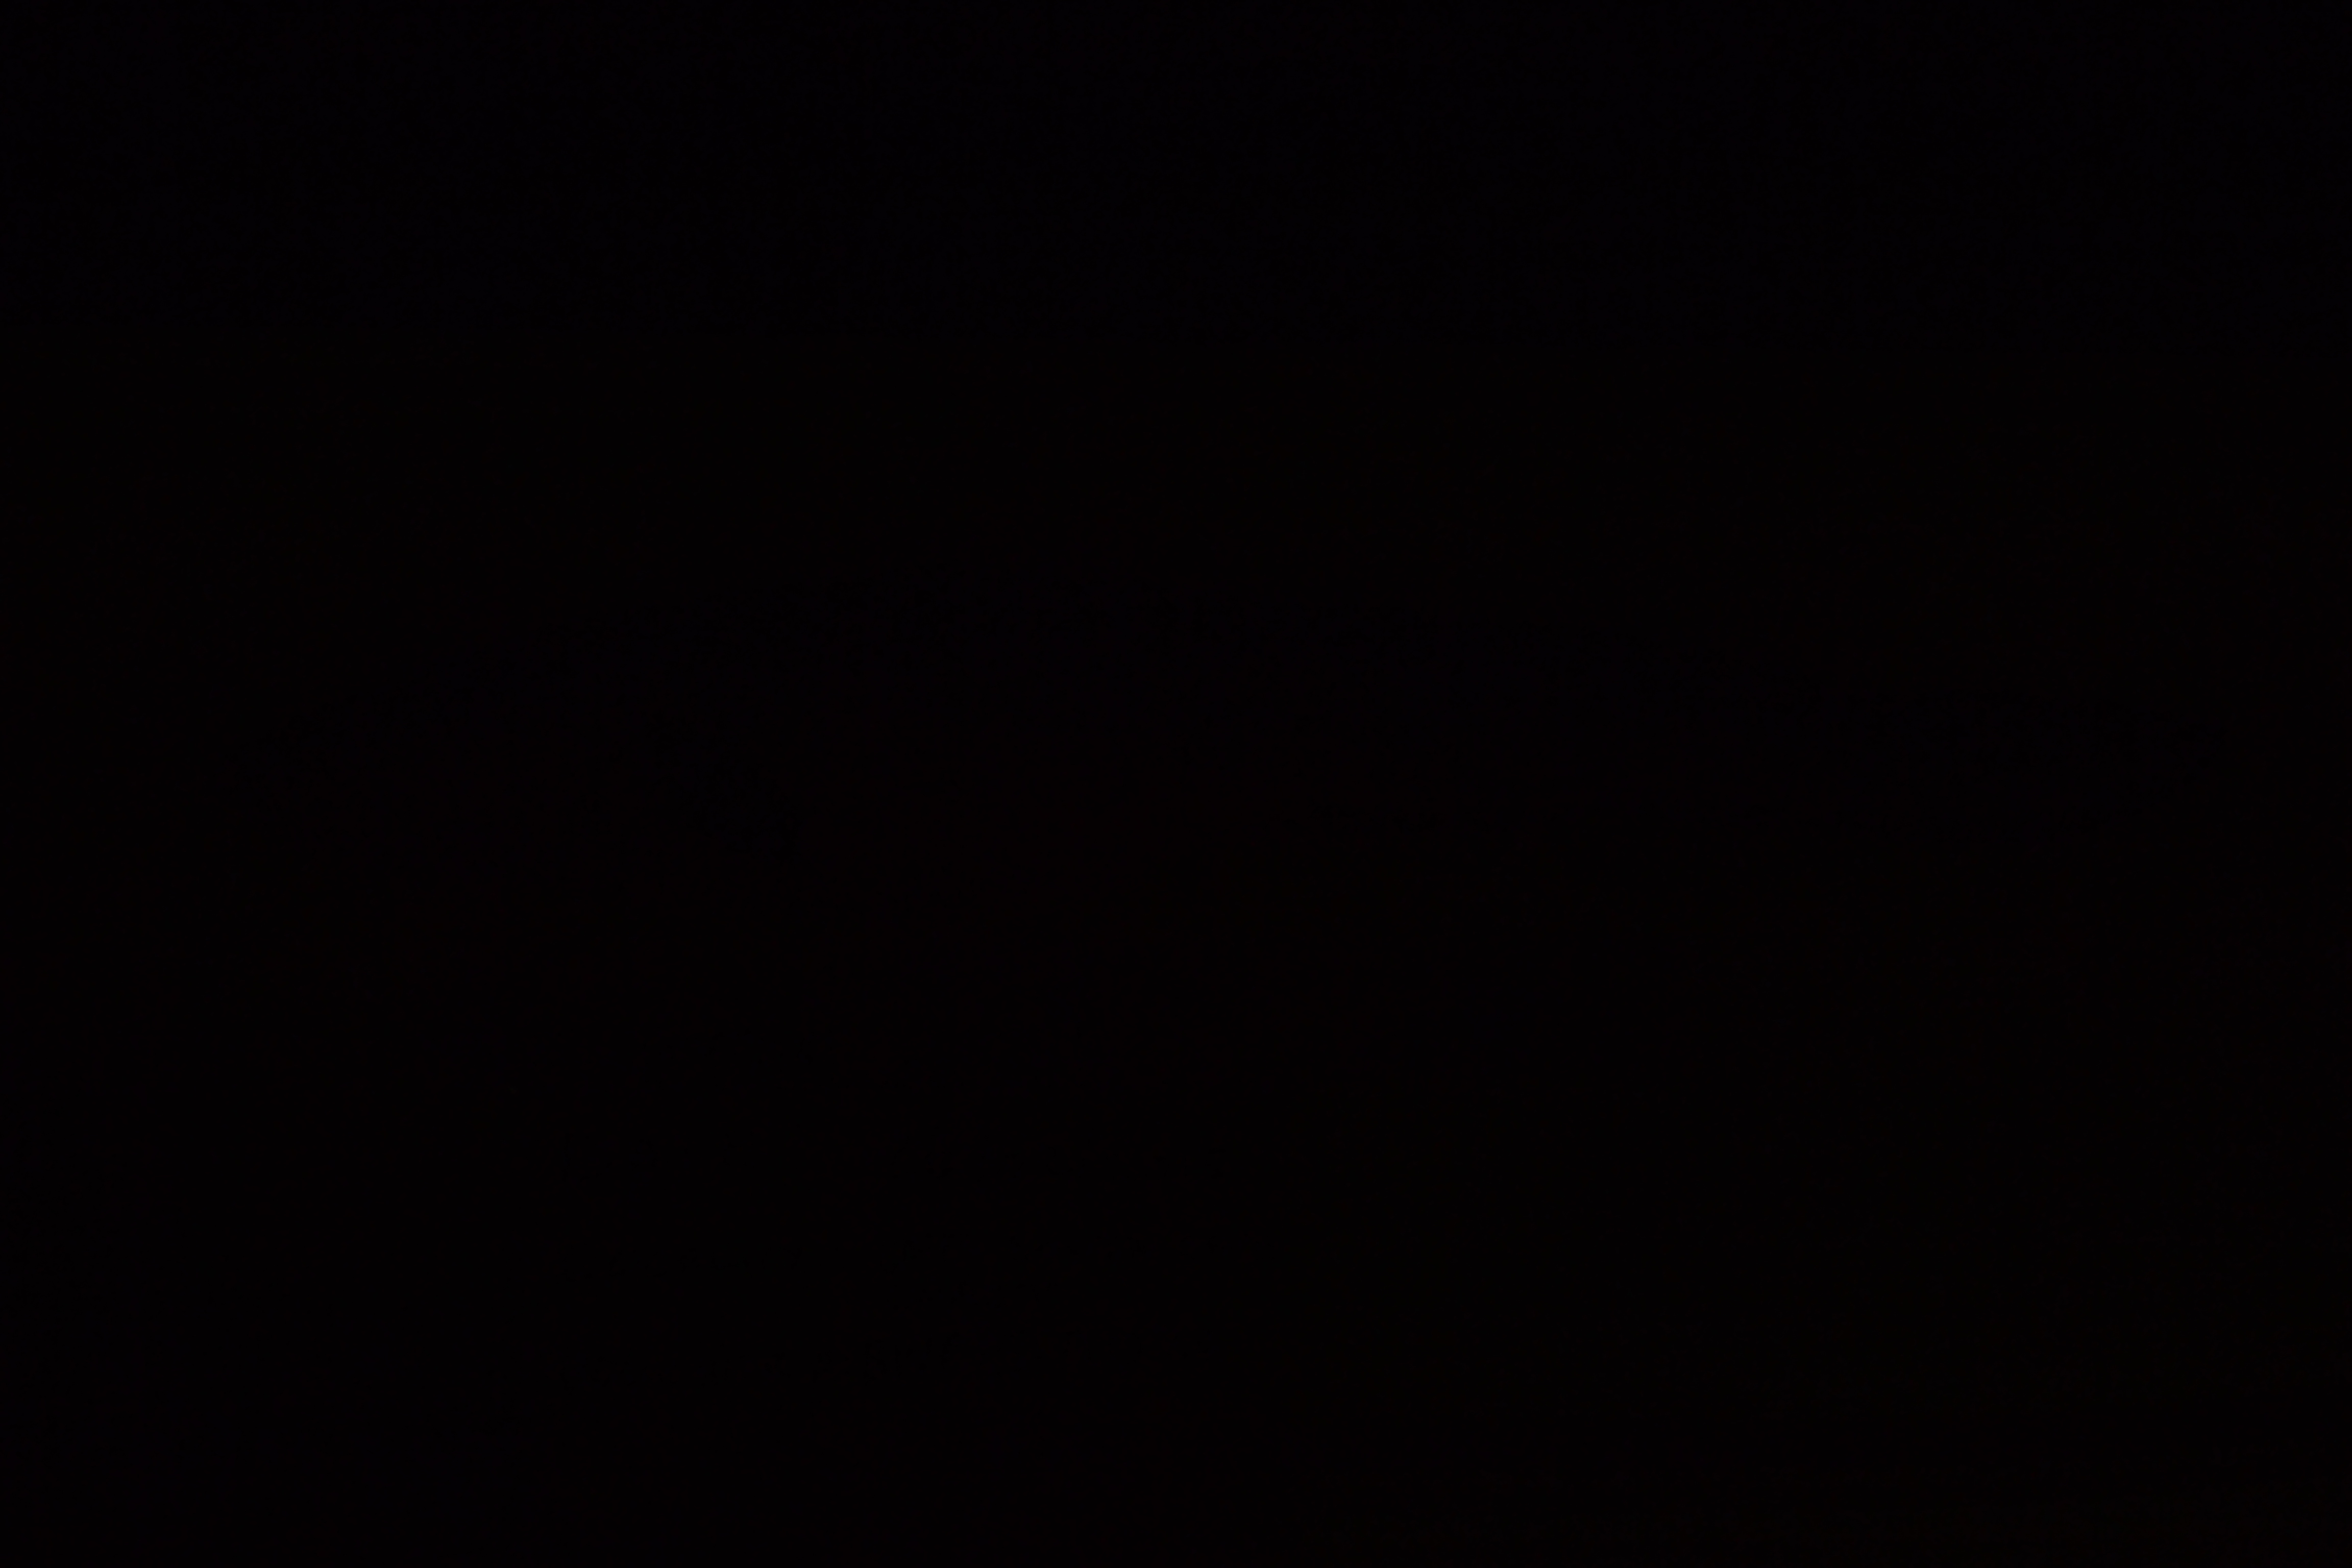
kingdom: Animalia
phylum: Chordata
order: Ophidiiformes
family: Ophidiidae
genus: Genypterus
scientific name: Genypterus capensis
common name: Kingklip
